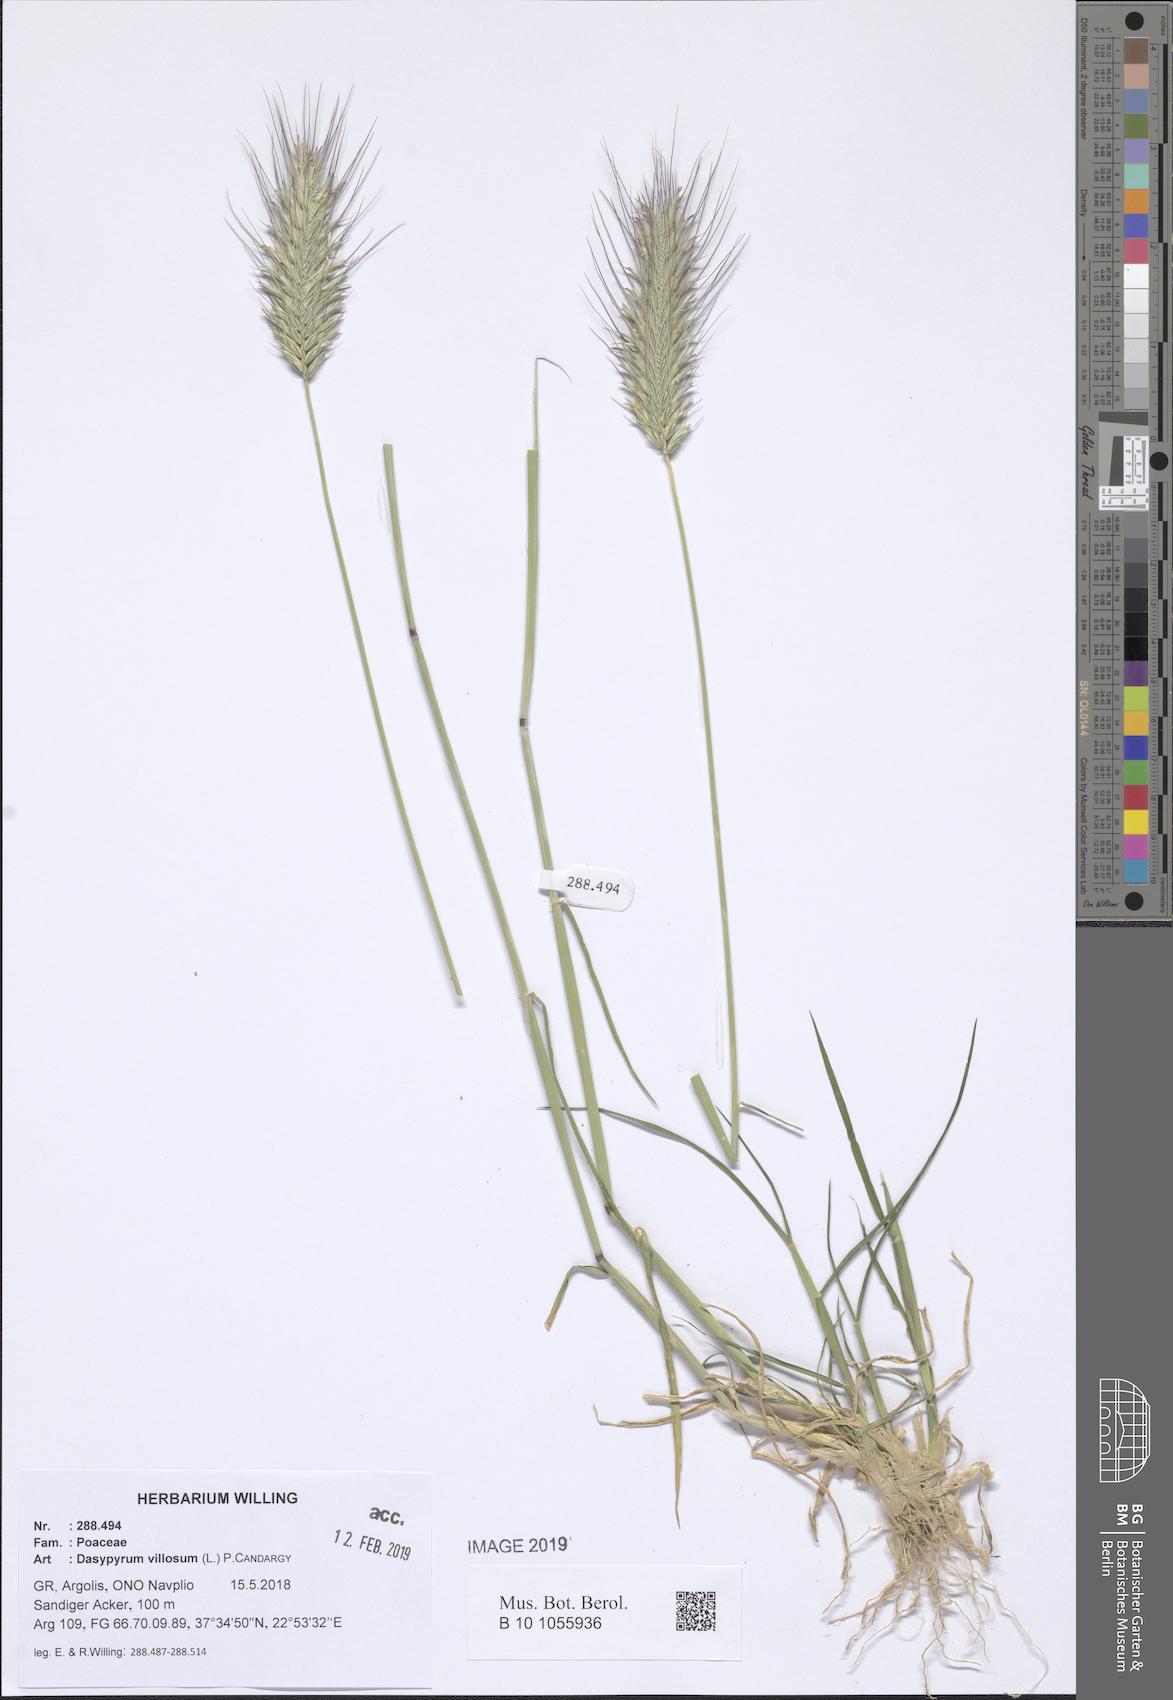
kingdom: Plantae
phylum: Tracheophyta
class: Liliopsida
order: Poales
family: Poaceae
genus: Dasypyrum
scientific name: Dasypyrum villosum
